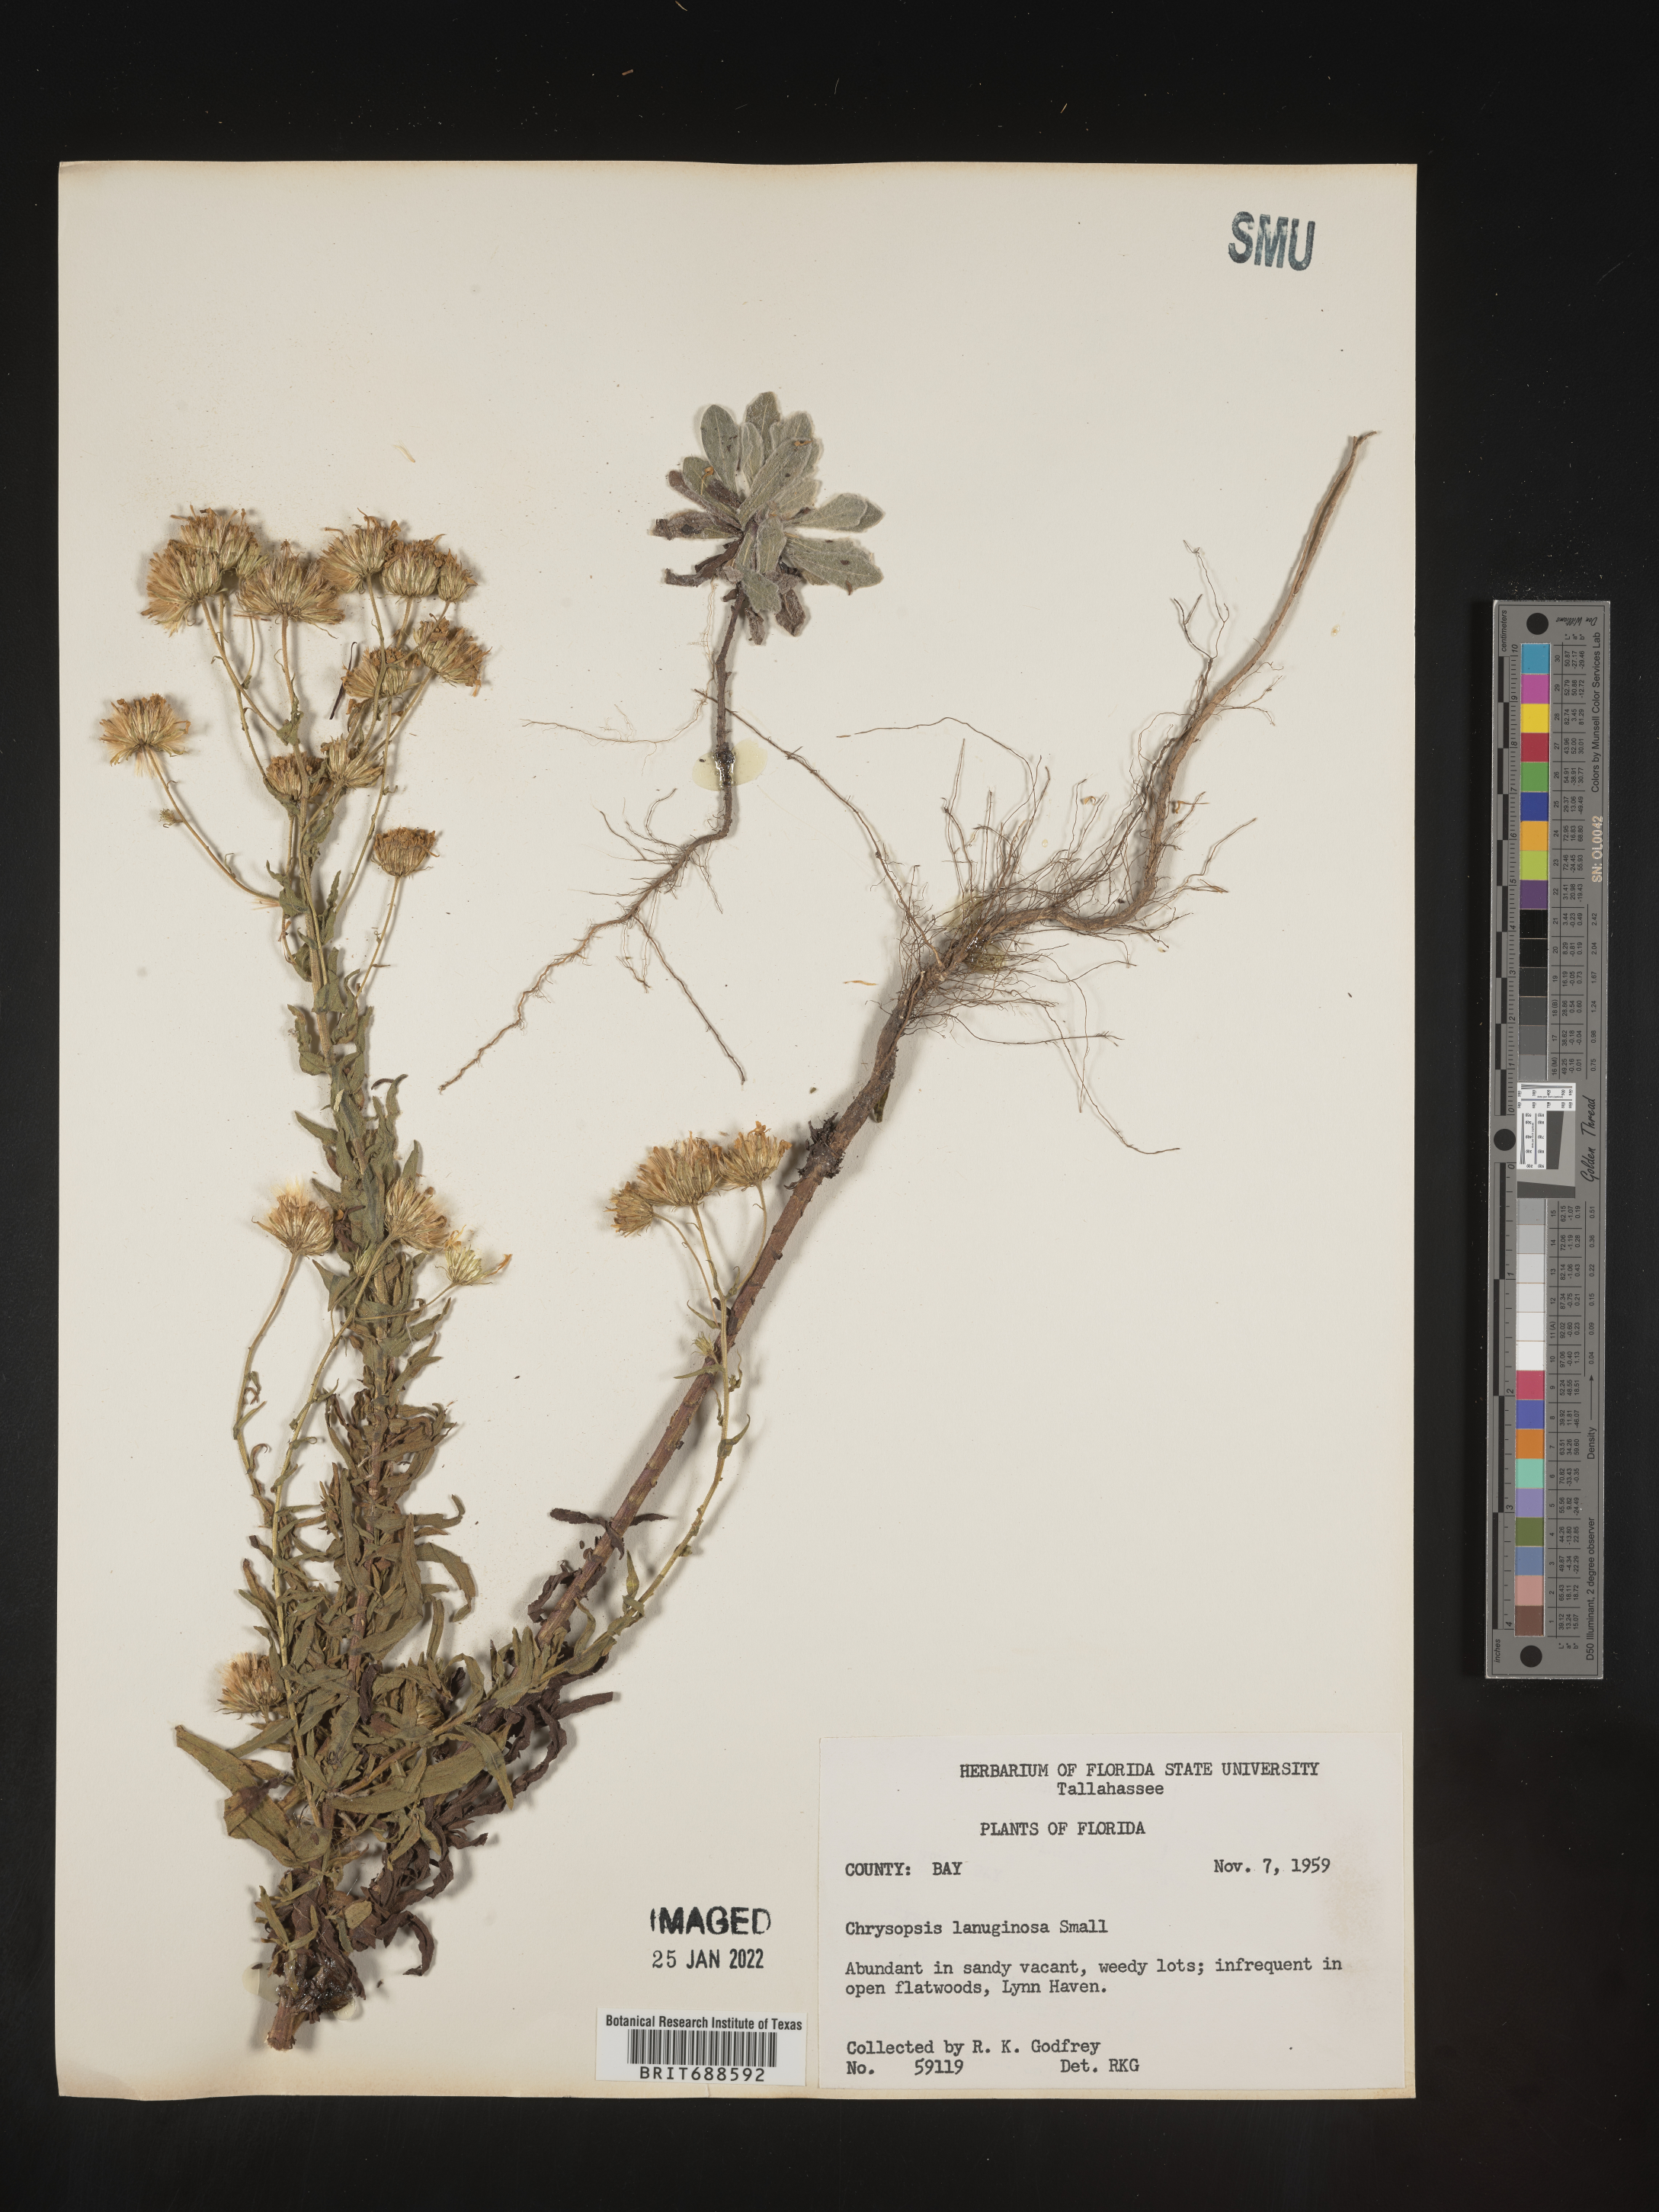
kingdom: Plantae
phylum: Tracheophyta
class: Magnoliopsida
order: Asterales
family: Asteraceae
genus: Chrysopsis
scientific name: Chrysopsis lanuginosa
